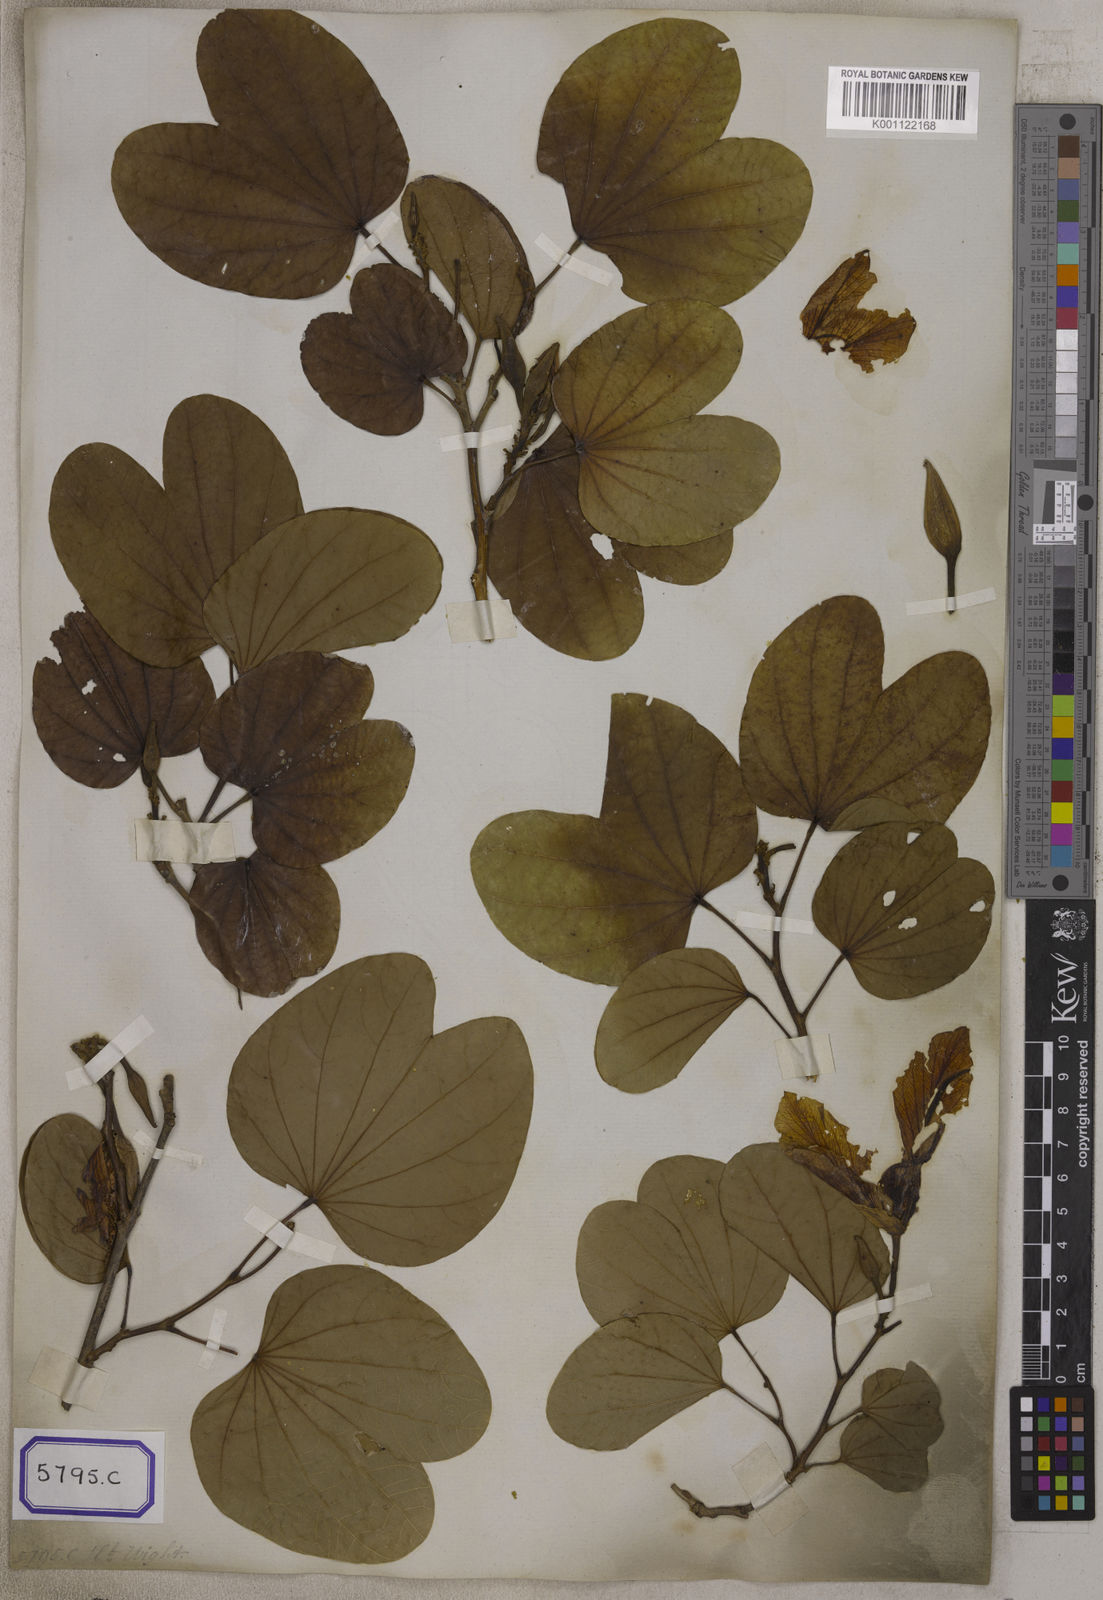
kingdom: Plantae
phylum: Tracheophyta
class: Magnoliopsida
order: Fabales
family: Fabaceae
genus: Bauhinia
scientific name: Bauhinia variegata
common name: Mountain ebony
